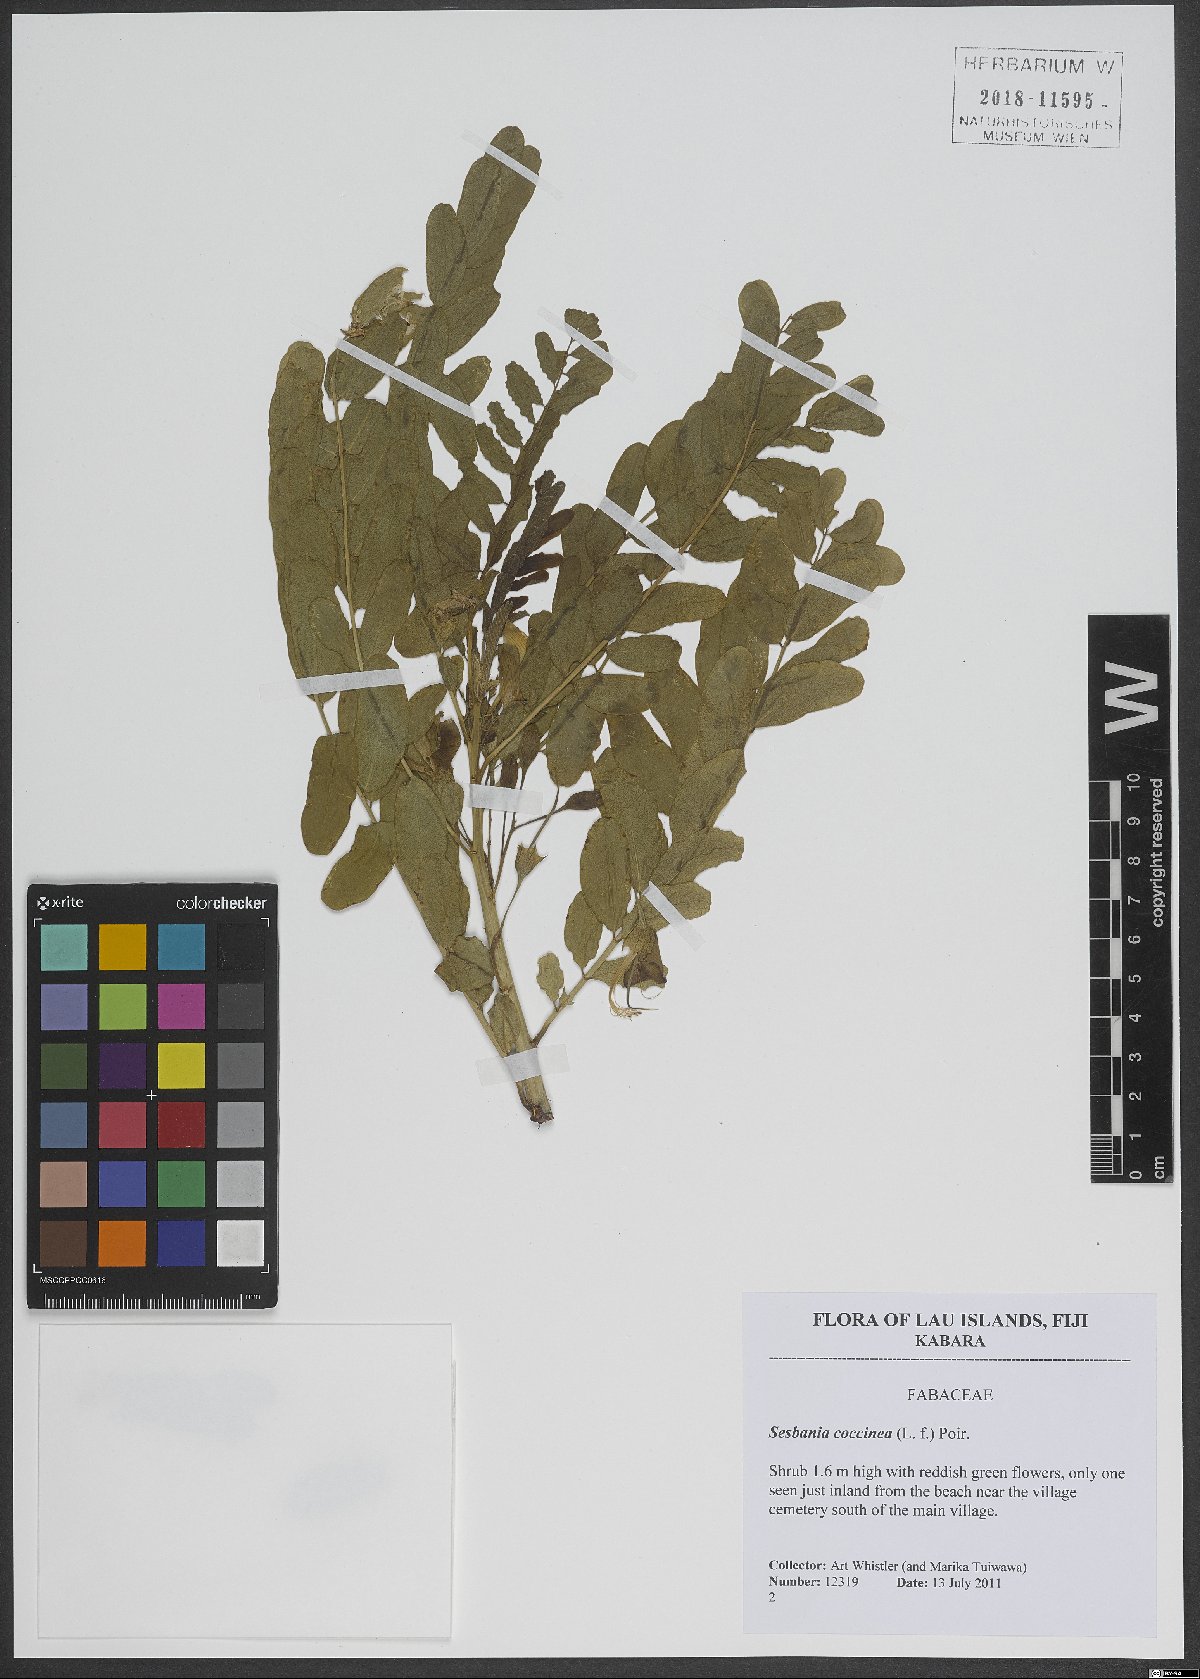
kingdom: Plantae
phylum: Tracheophyta
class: Magnoliopsida
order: Fabales
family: Fabaceae
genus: Sesbania
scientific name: Sesbania coccinea
